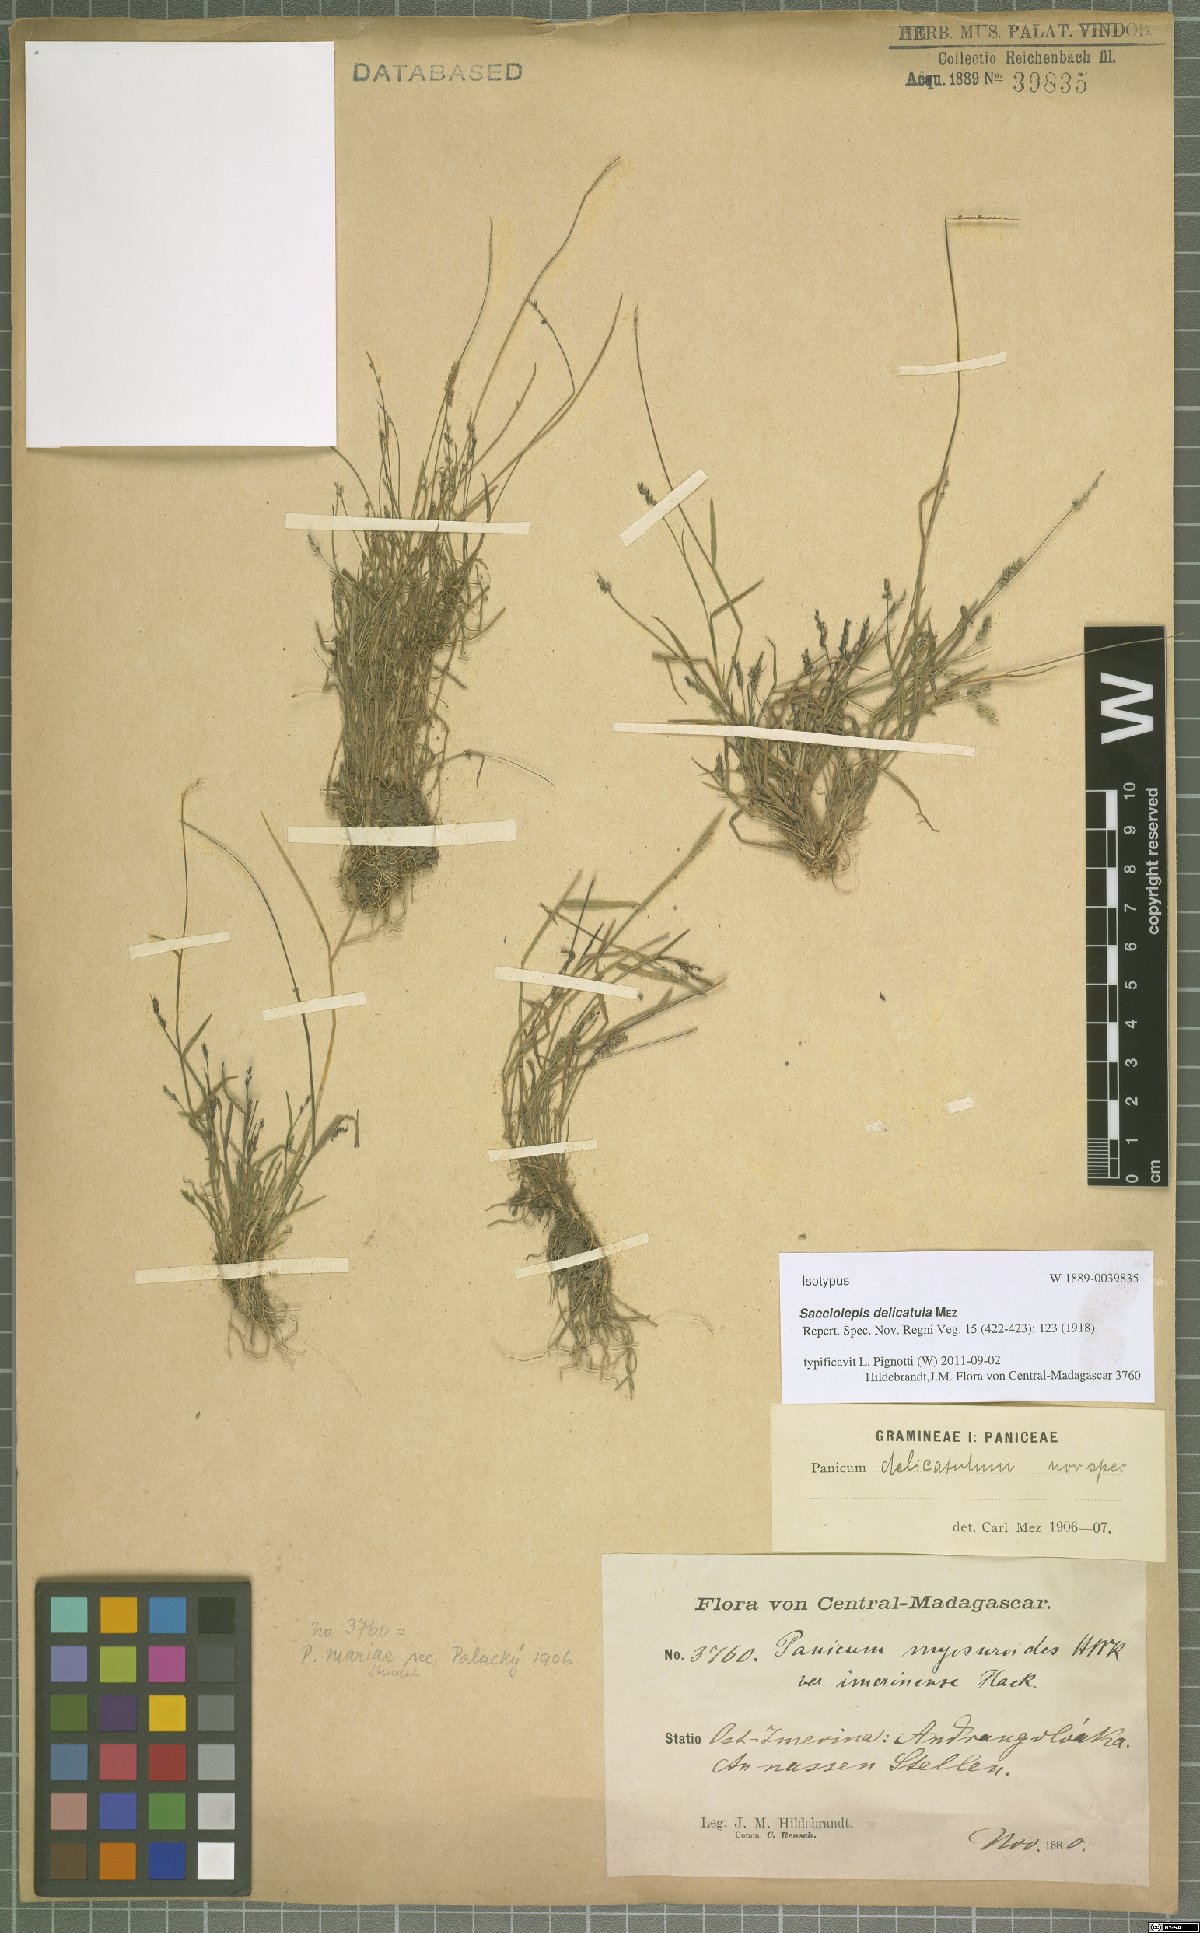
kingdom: Plantae
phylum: Tracheophyta
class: Liliopsida
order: Poales
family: Poaceae
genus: Sacciolepis
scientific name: Sacciolepis myosuroides
